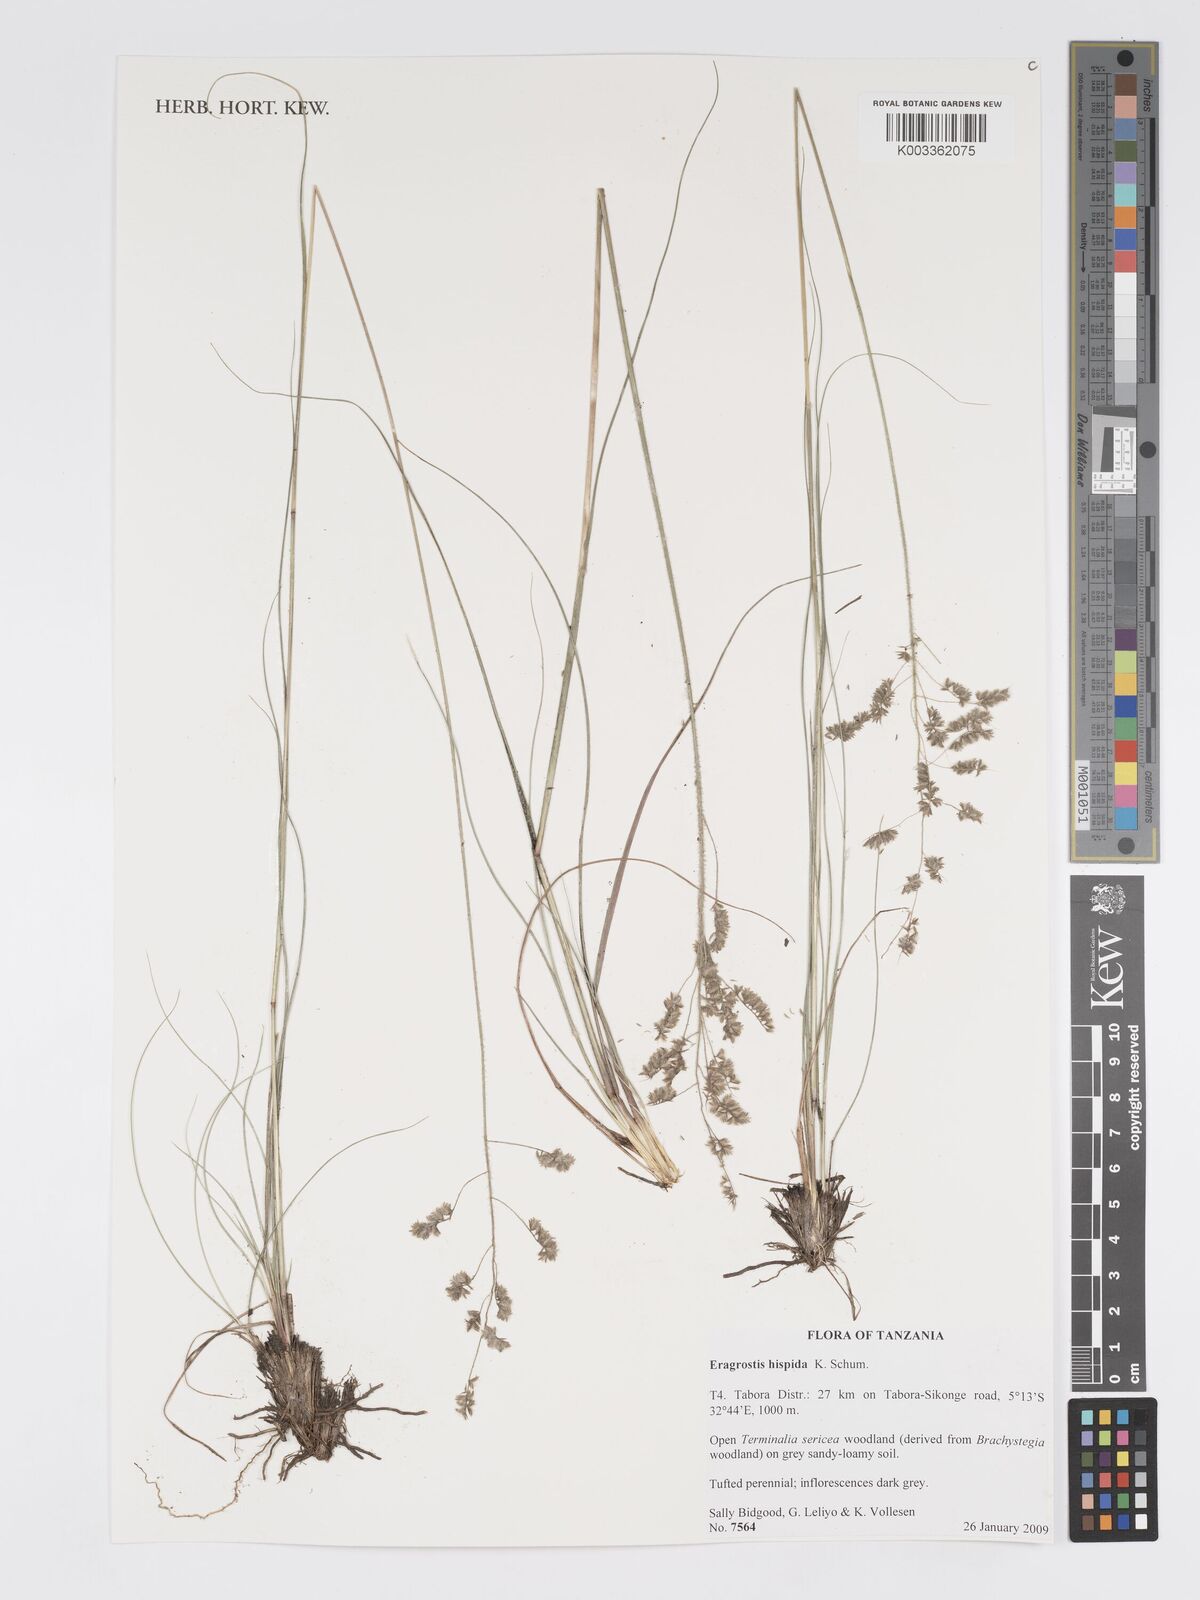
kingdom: Plantae
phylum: Tracheophyta
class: Liliopsida
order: Poales
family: Poaceae
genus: Eragrostis
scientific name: Eragrostis hispida
